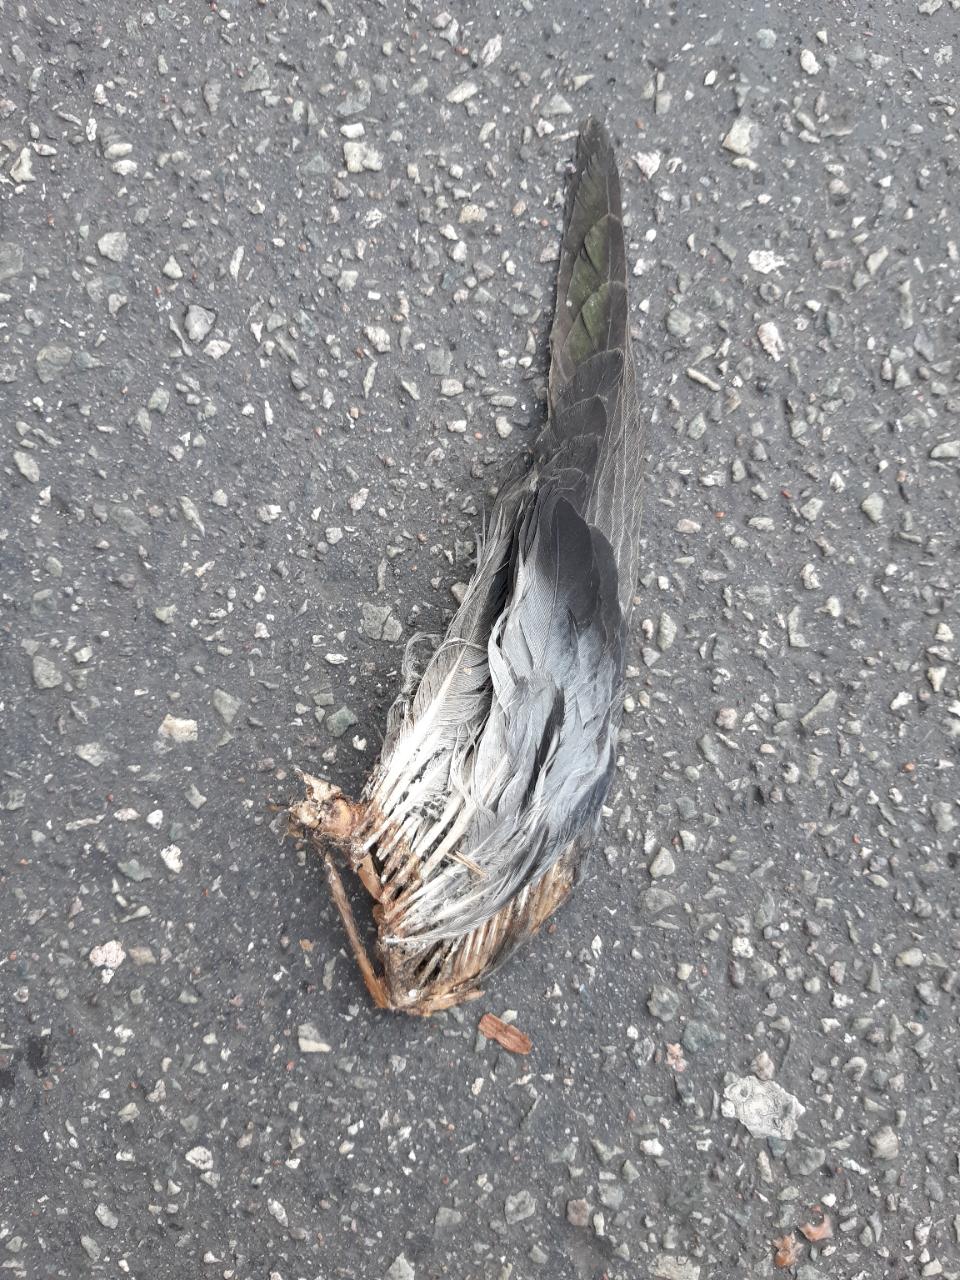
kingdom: Animalia
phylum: Chordata
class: Aves
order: Columbiformes
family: Columbidae
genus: Columba
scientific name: Columba livia
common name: Rock pigeon
